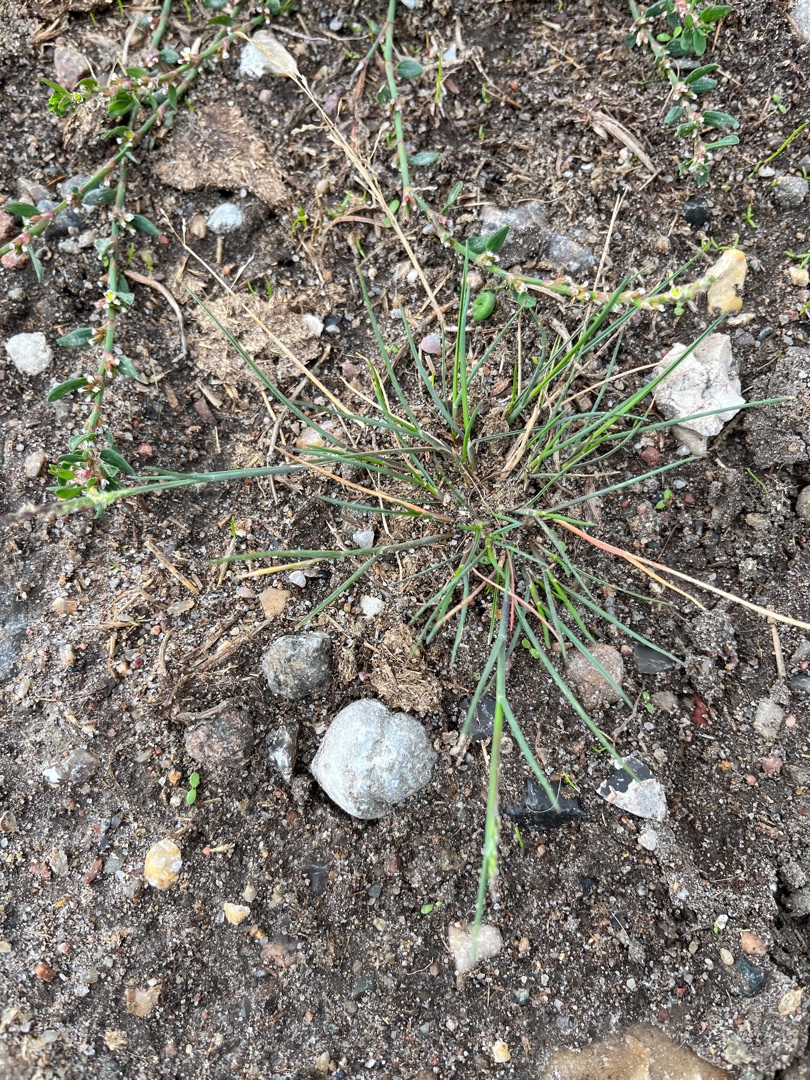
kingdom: Plantae
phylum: Tracheophyta
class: Liliopsida
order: Poales
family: Poaceae
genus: Puccinellia
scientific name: Puccinellia maritima
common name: Strand-annelgræs
